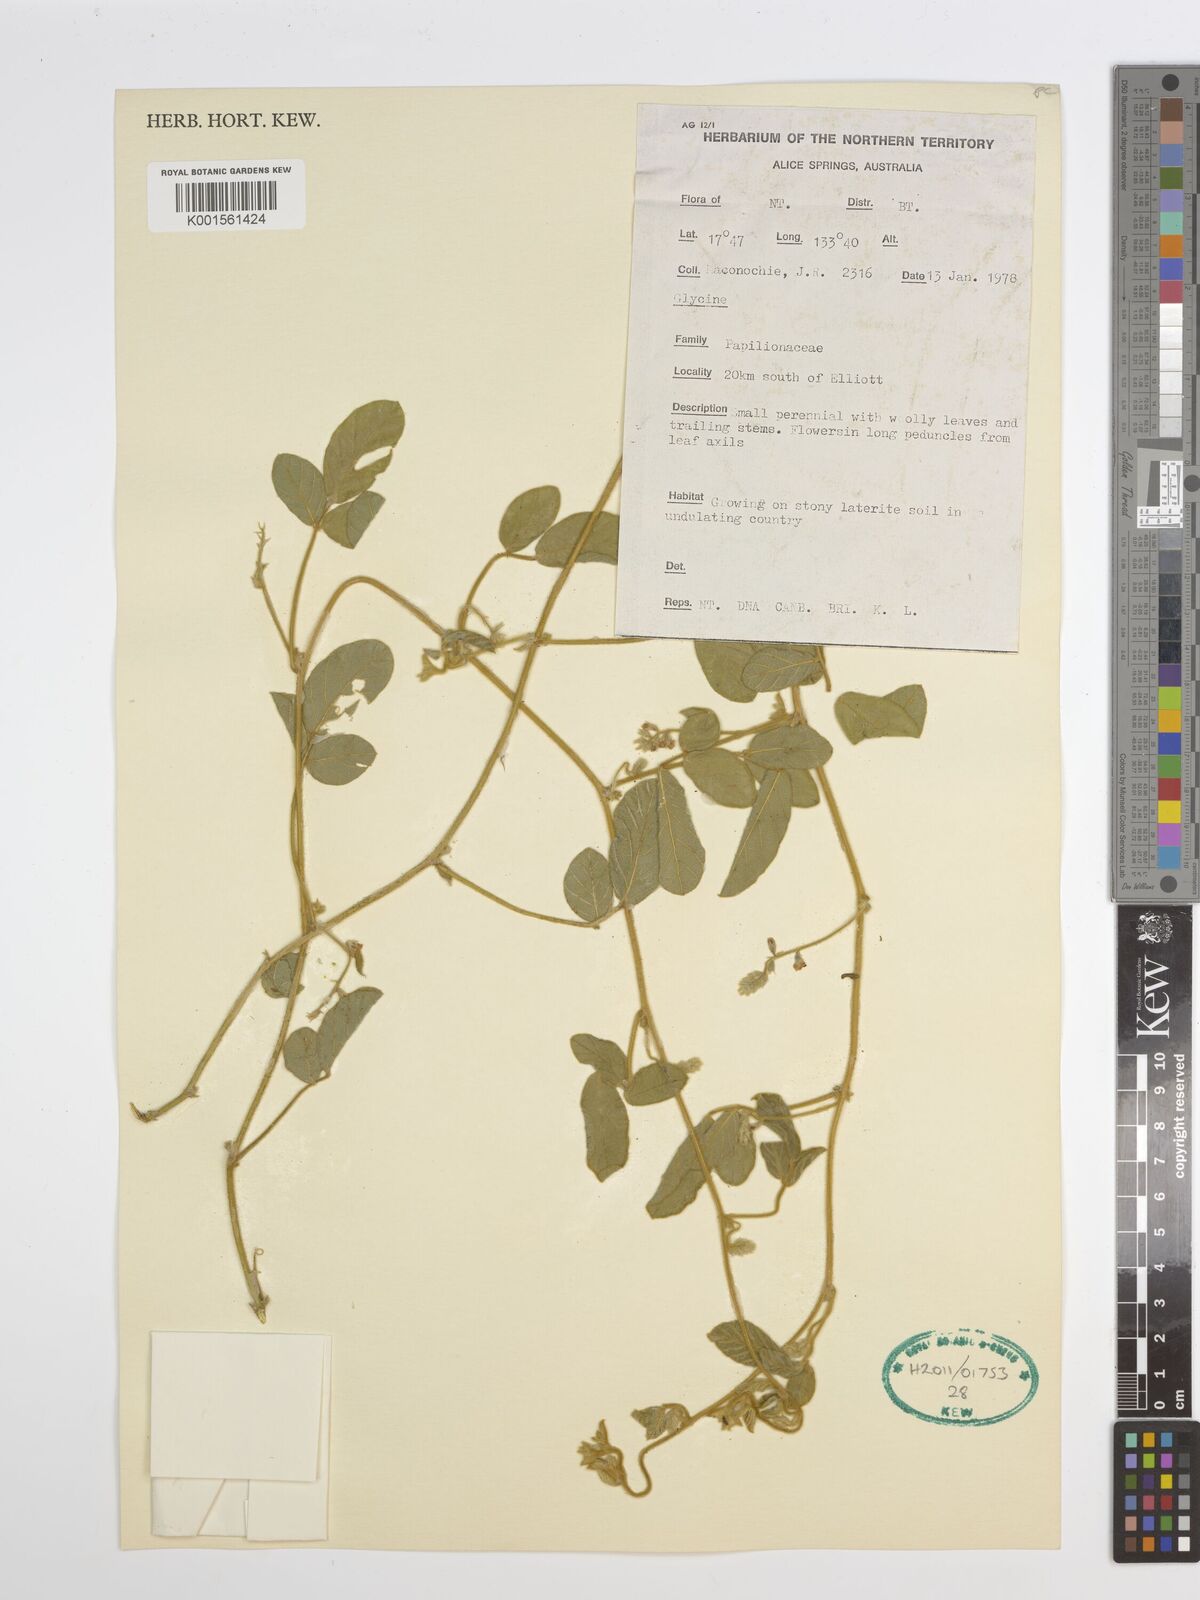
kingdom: Plantae
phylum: Tracheophyta
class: Magnoliopsida
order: Fabales
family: Fabaceae
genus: Glycine
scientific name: Glycine tomentella
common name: Hairy glycine
